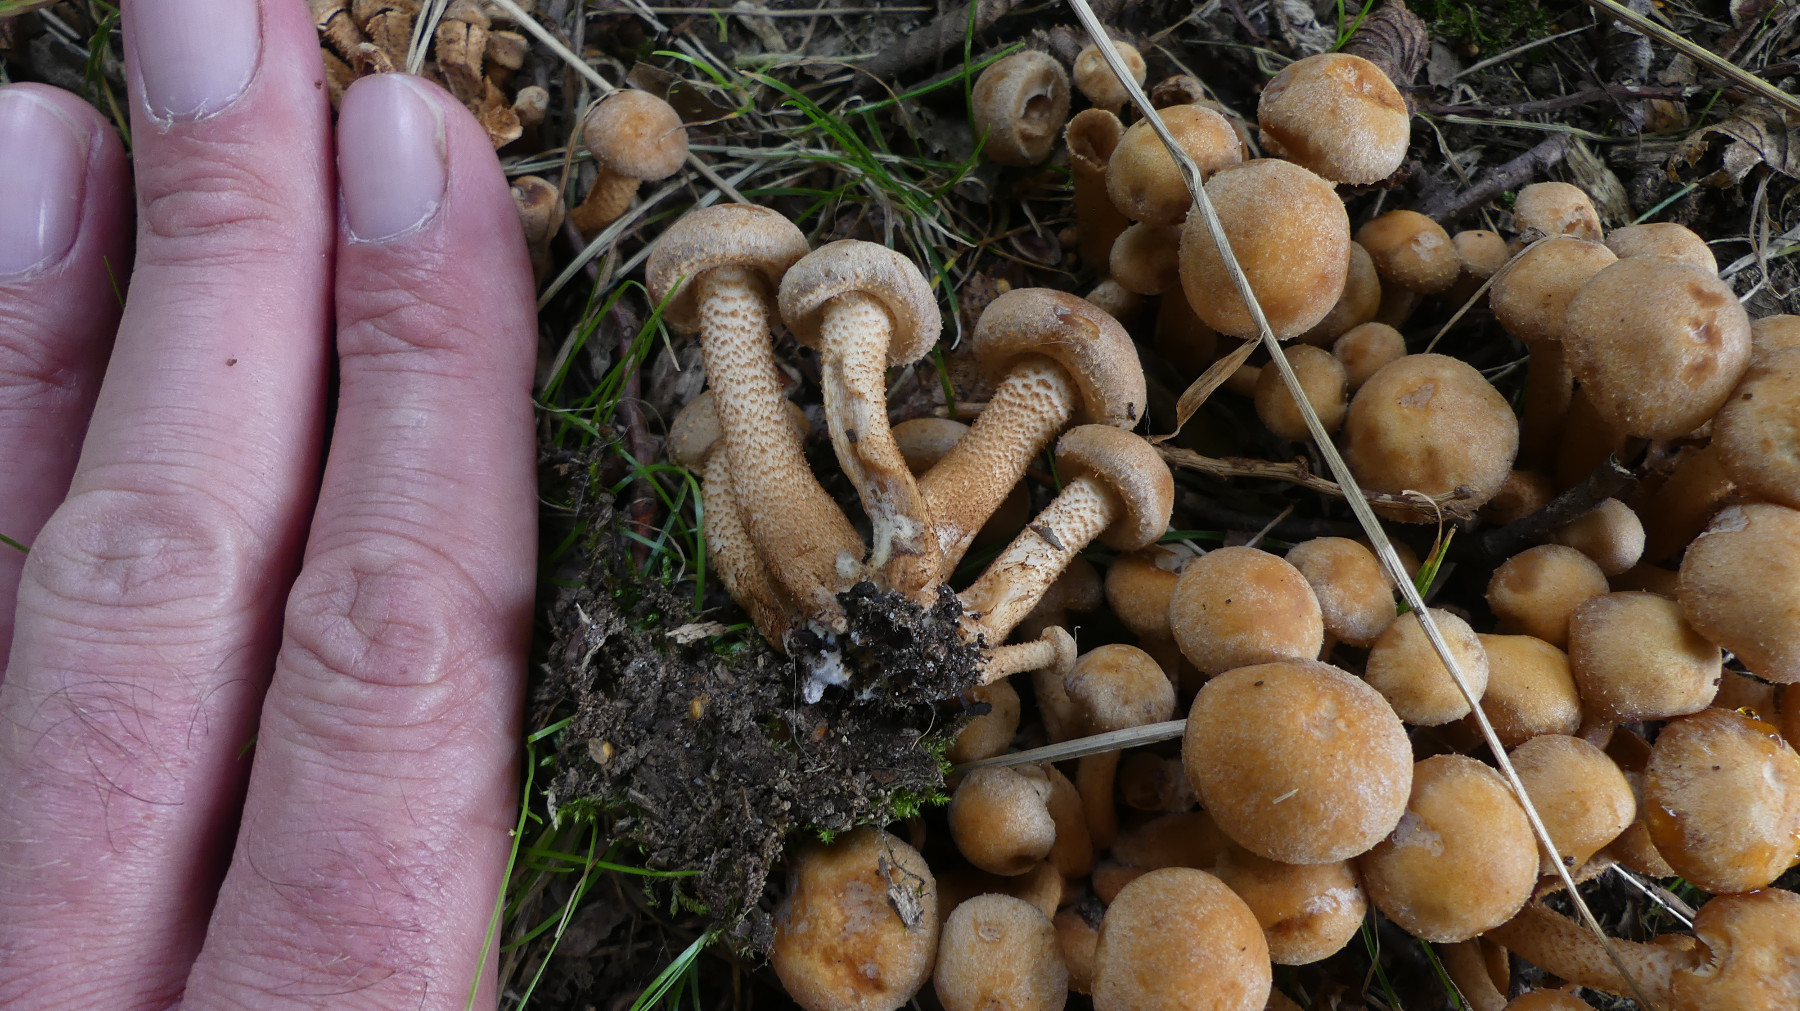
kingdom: Fungi
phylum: Basidiomycota
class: Agaricomycetes
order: Agaricales
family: Strophariaceae
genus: Kuehneromyces
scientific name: Kuehneromyces mutabilis
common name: foranderlig skælhat
